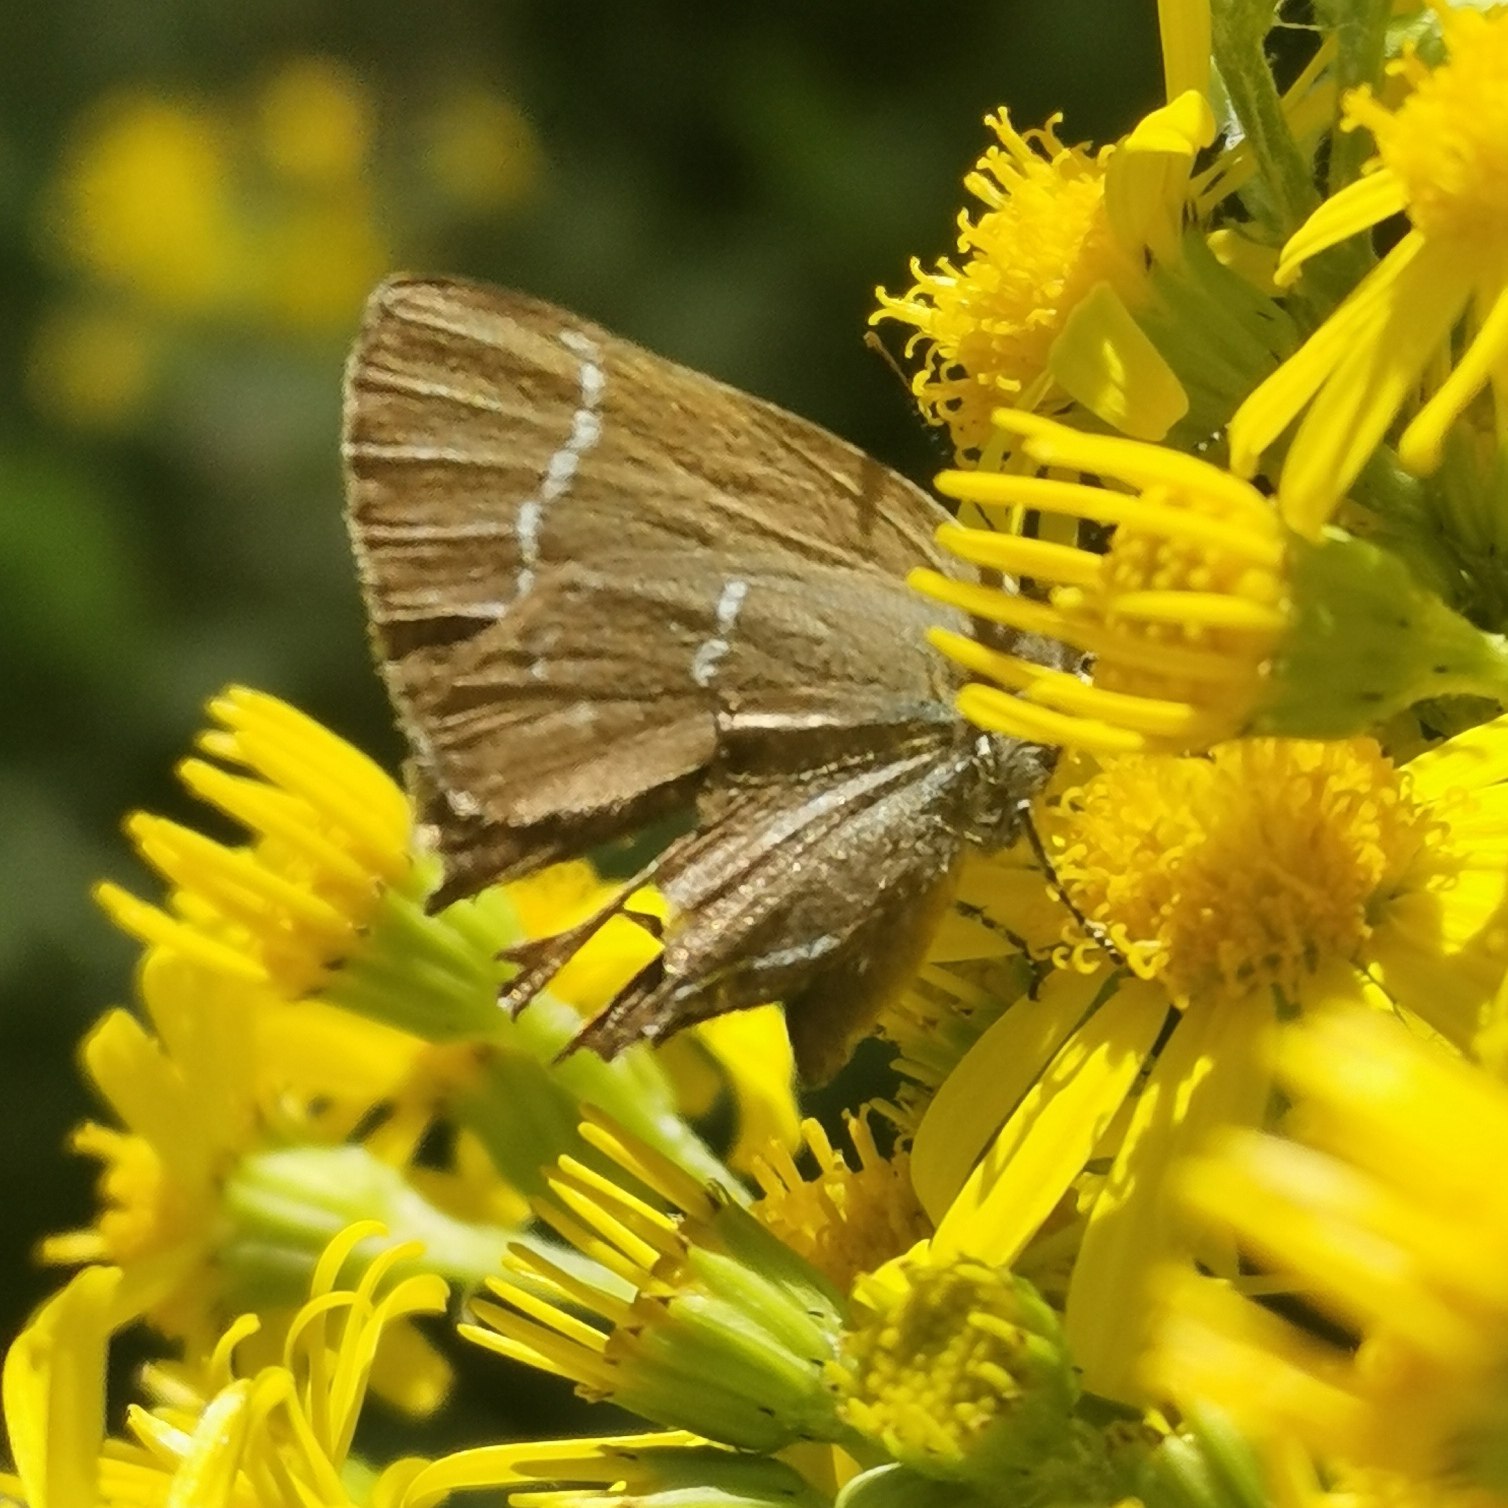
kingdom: Animalia
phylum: Arthropoda
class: Insecta
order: Lepidoptera
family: Lycaenidae
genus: Satyrium
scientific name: Satyrium w-album
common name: Det hvide W
